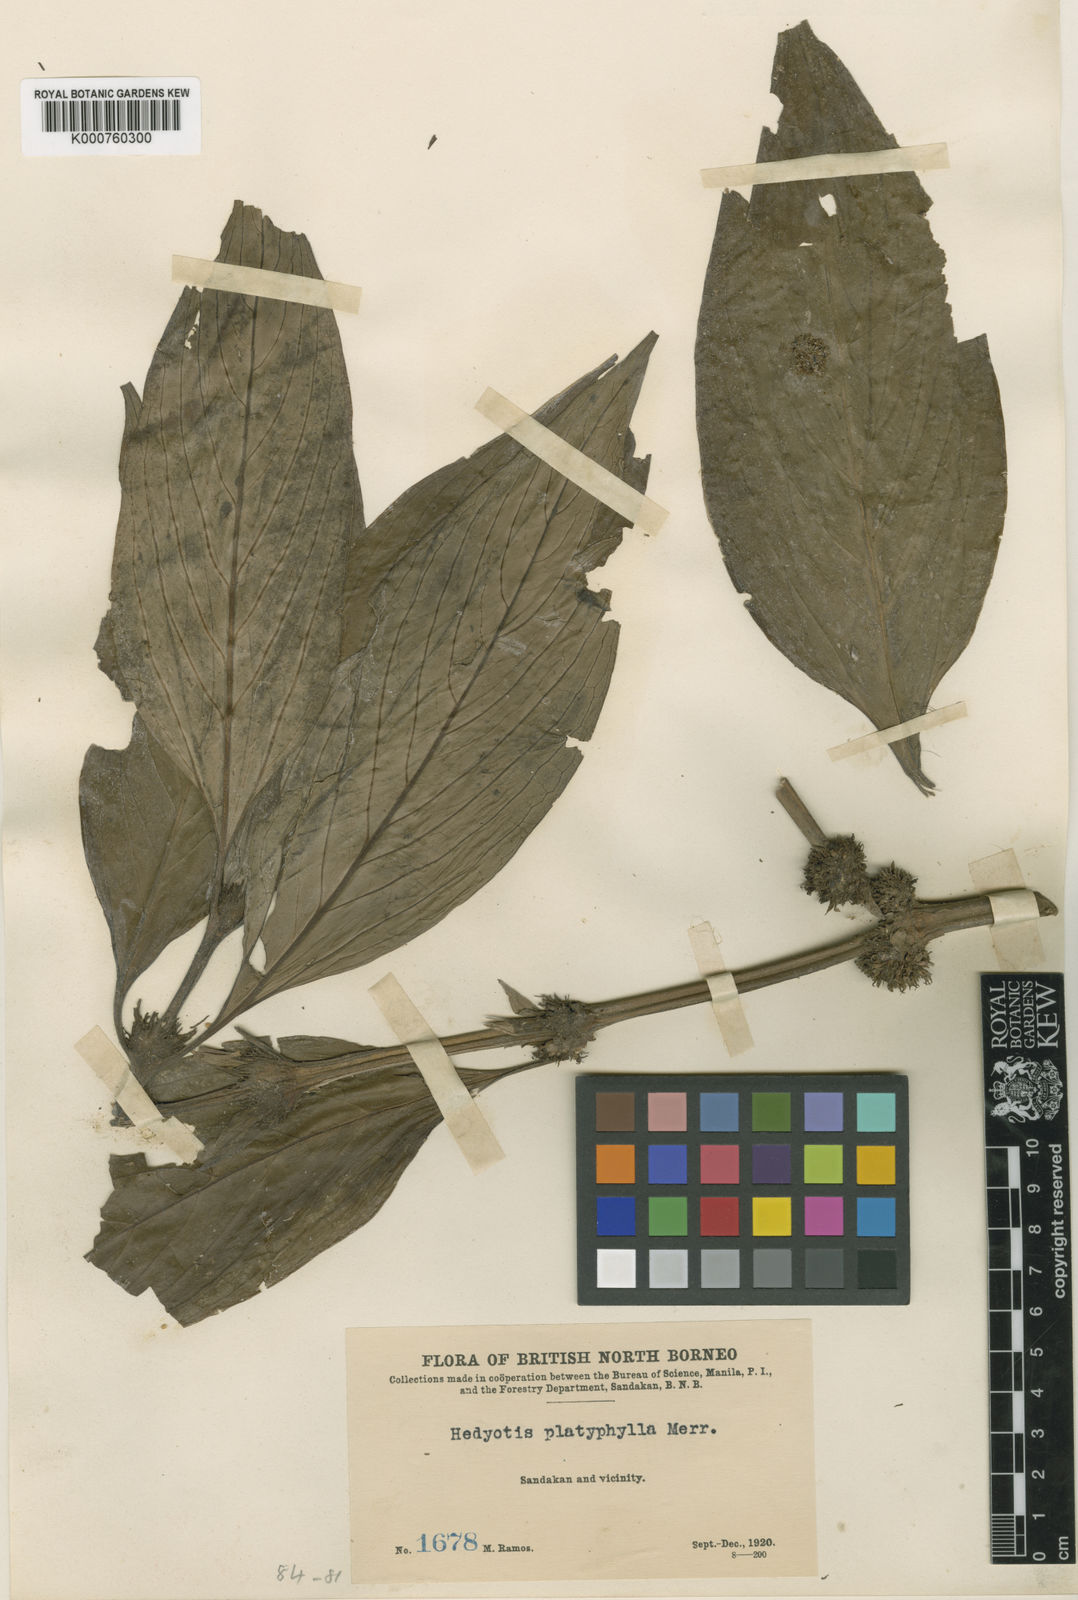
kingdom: Plantae
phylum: Tracheophyta
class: Magnoliopsida
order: Gentianales
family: Rubiaceae
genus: Hedyotis
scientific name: Hedyotis platyphylla
